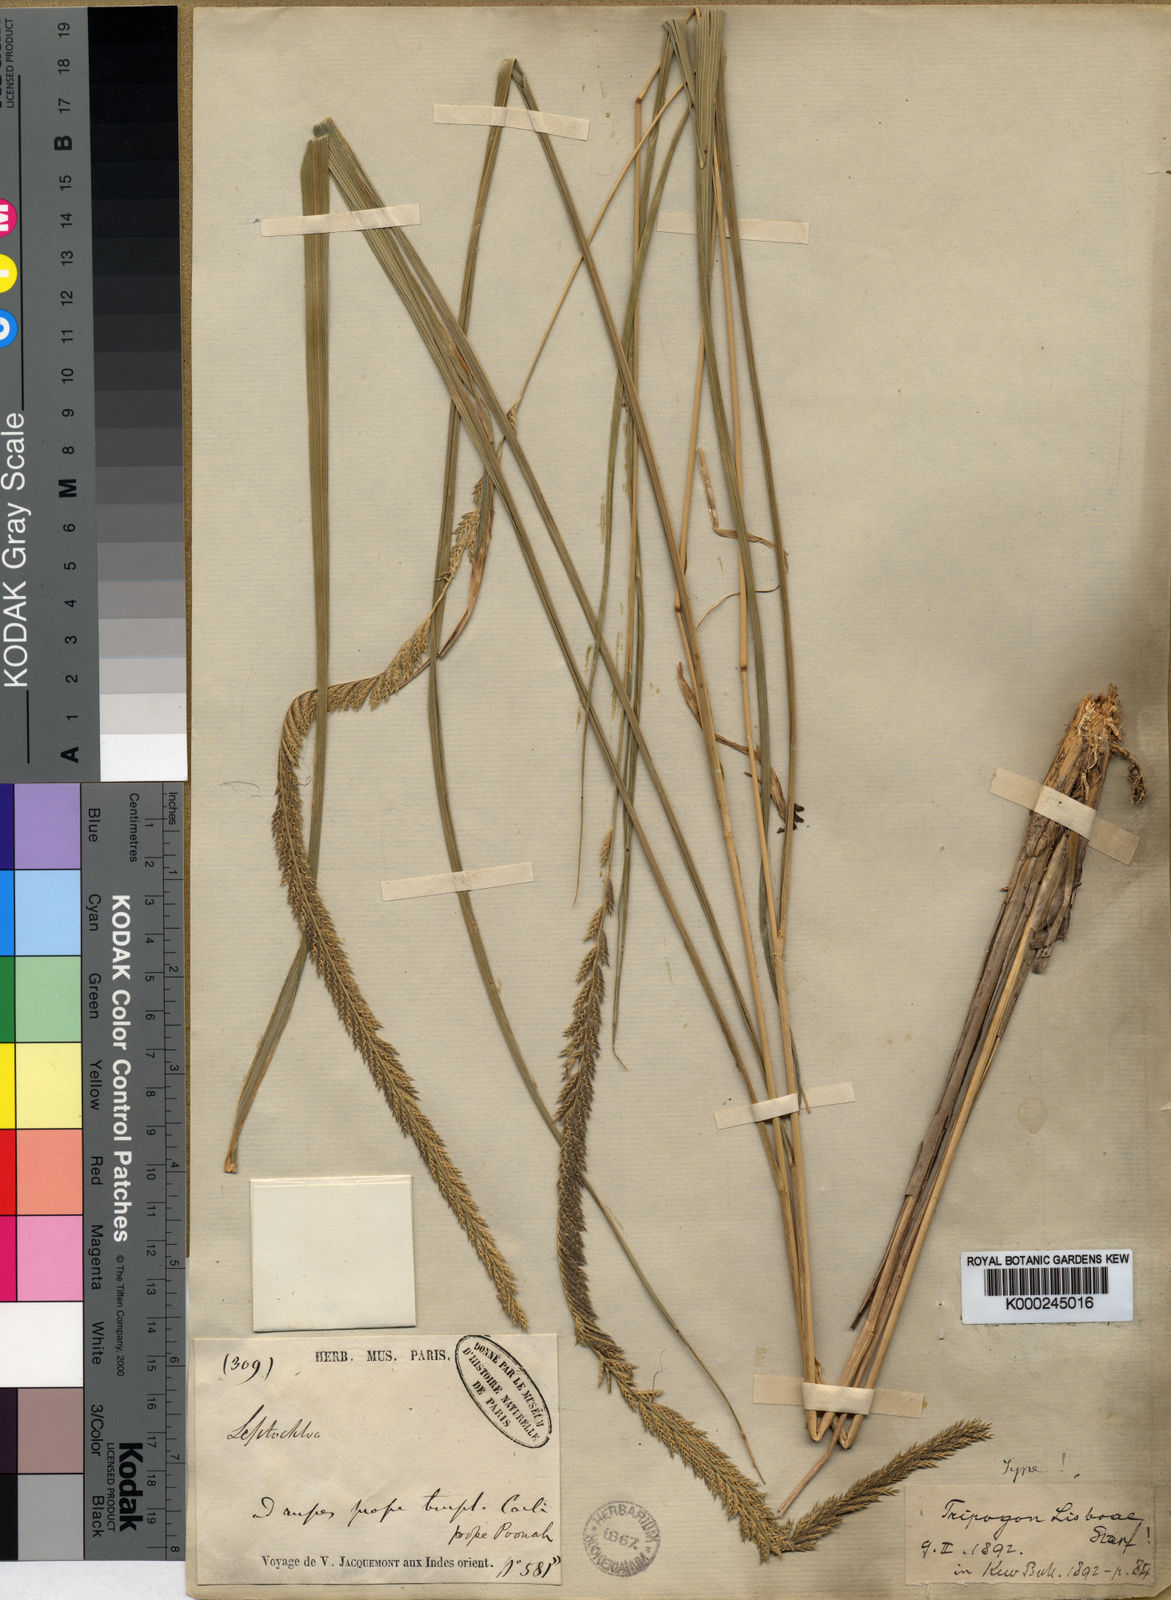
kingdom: Plantae
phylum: Tracheophyta
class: Liliopsida
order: Poales
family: Poaceae
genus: Tripogon
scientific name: Tripogon lisboae
